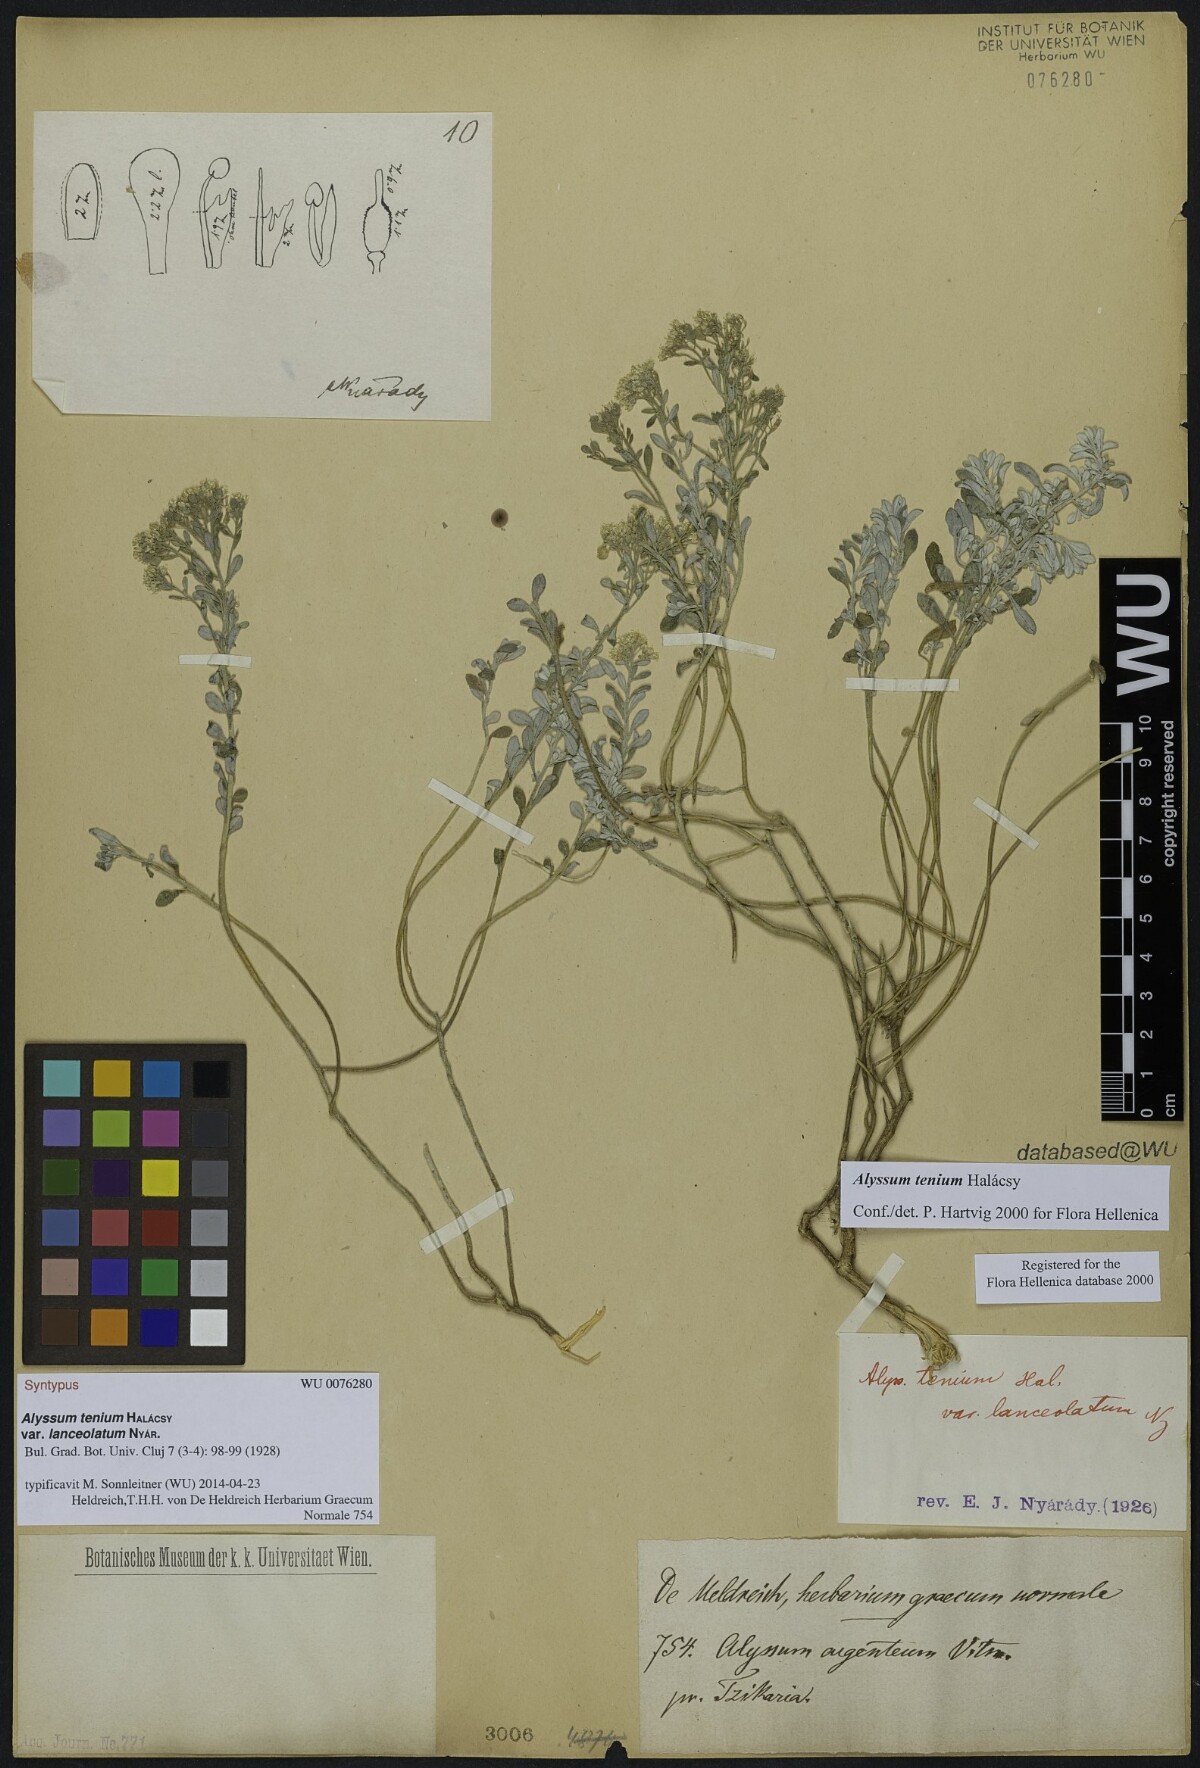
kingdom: Plantae
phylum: Tracheophyta
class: Magnoliopsida
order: Brassicales
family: Brassicaceae
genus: Alyssum
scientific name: Alyssum tenium
